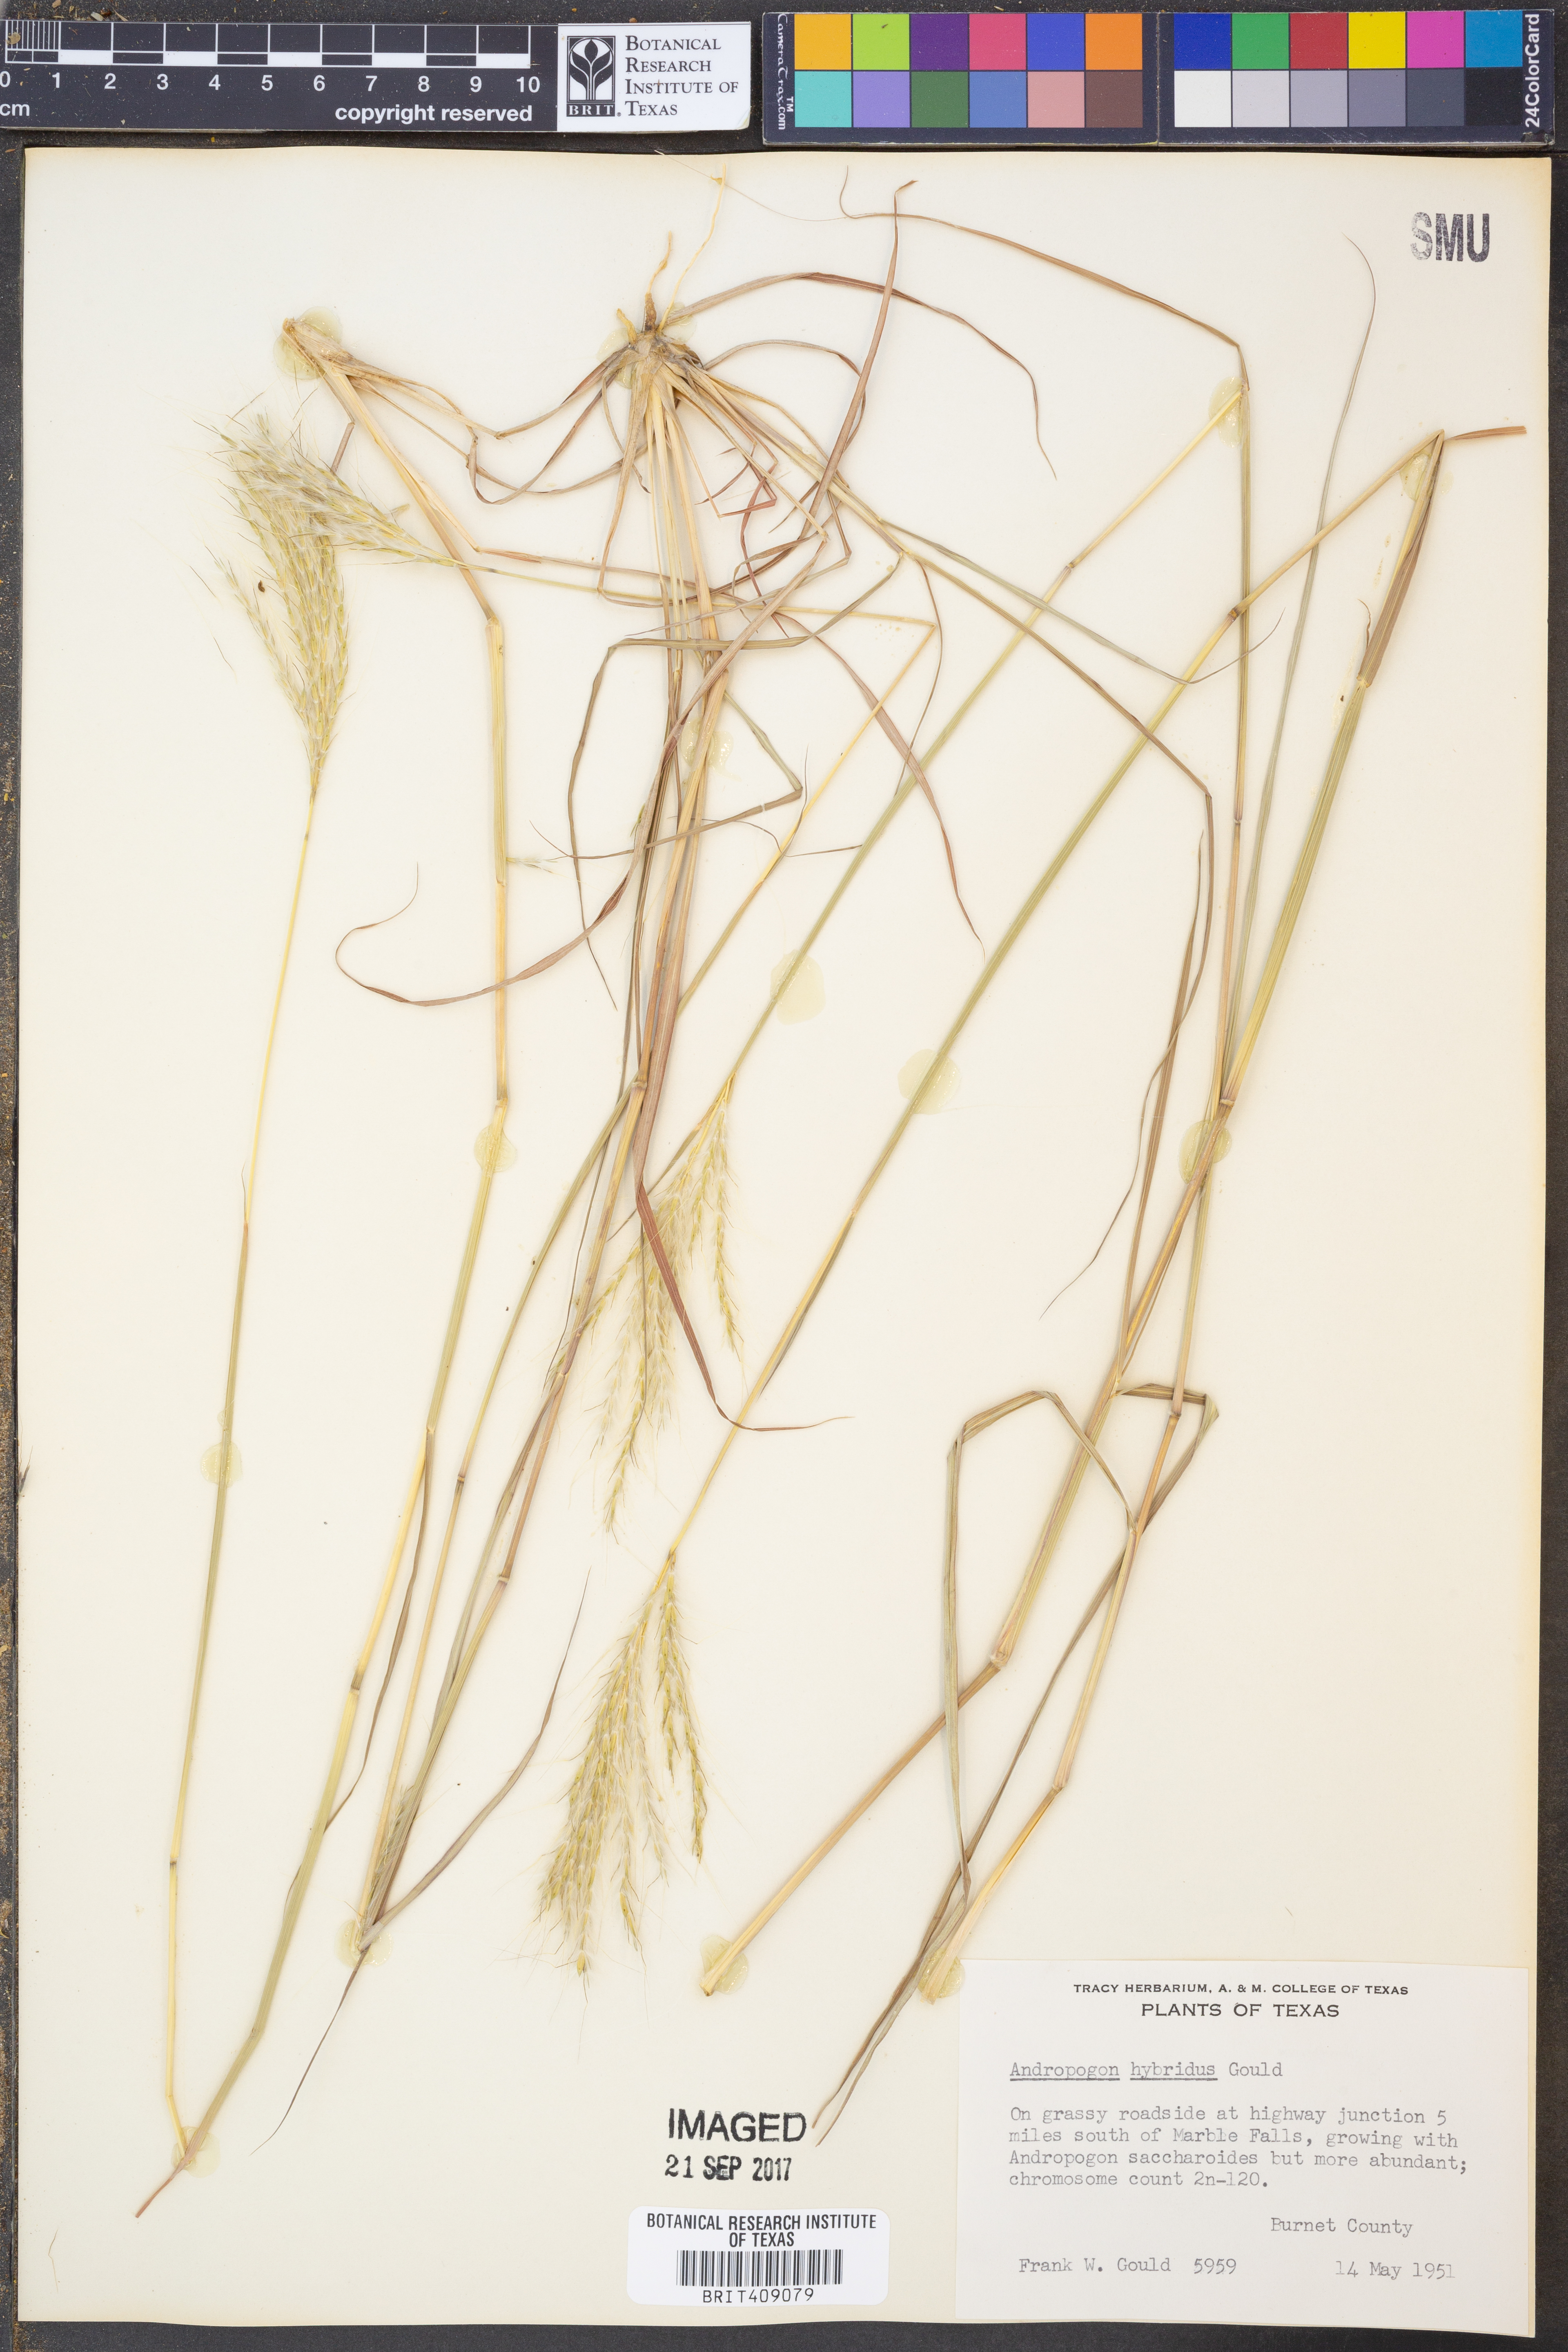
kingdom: Plantae
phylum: Tracheophyta
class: Liliopsida
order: Poales
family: Poaceae
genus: Bothriochloa
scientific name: Bothriochloa hybrida
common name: Hybrid bluestem
